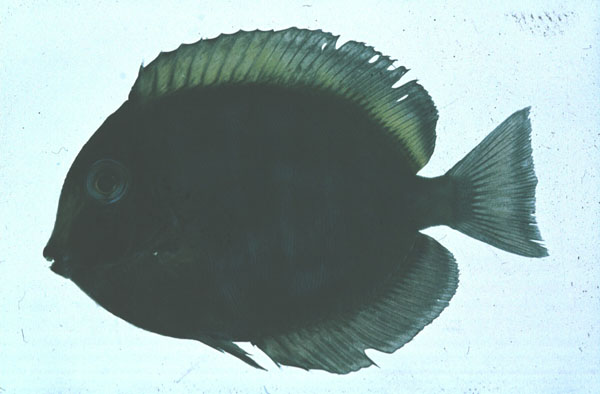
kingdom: Animalia
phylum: Chordata
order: Perciformes
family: Acanthuridae
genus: Acanthurus
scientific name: Acanthurus nubilus
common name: Bluelined surgeonfish
